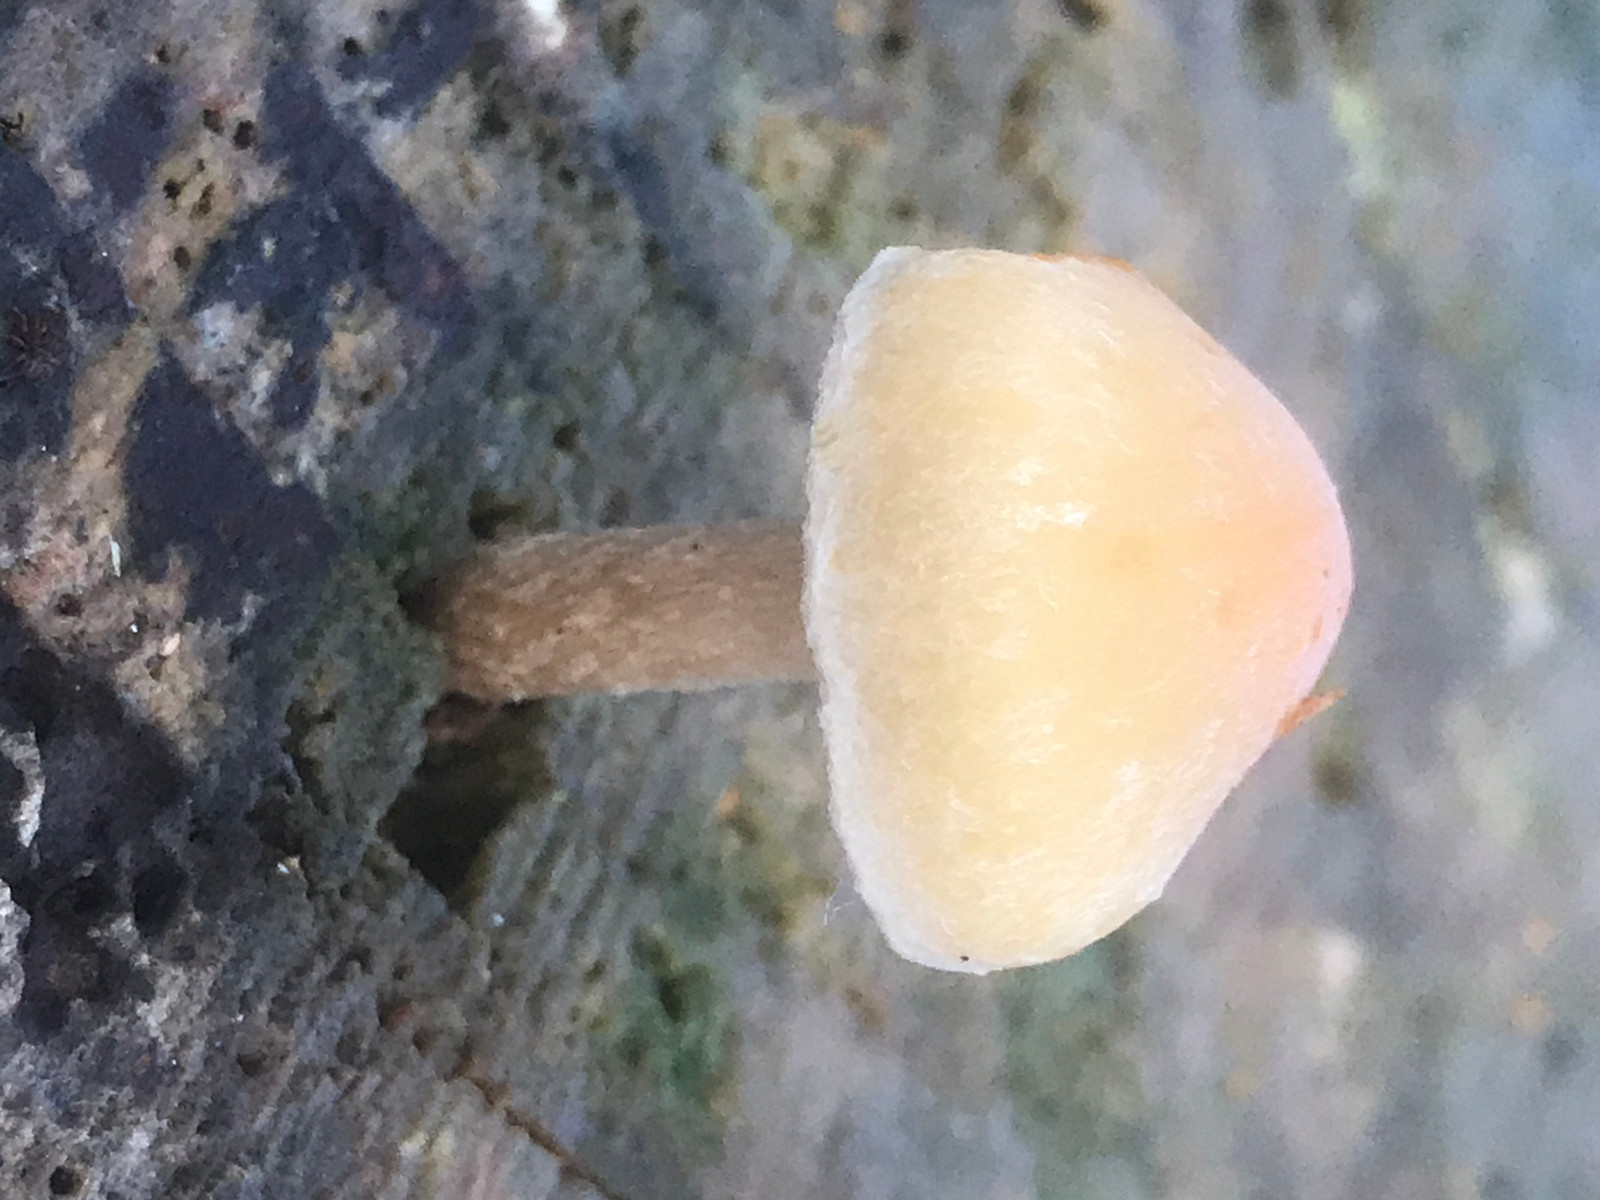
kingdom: Fungi
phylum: Basidiomycota
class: Agaricomycetes
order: Agaricales
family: Strophariaceae
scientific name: Strophariaceae
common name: bredbladfamilien
